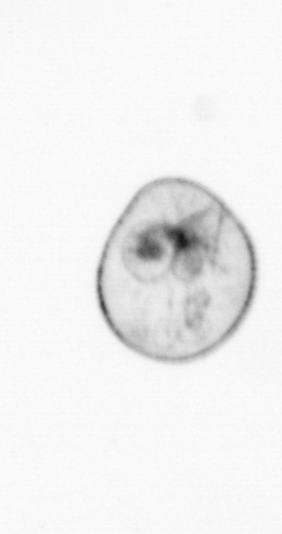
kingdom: Chromista
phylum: Myzozoa
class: Dinophyceae
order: Noctilucales
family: Noctilucaceae
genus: Noctiluca
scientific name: Noctiluca scintillans
